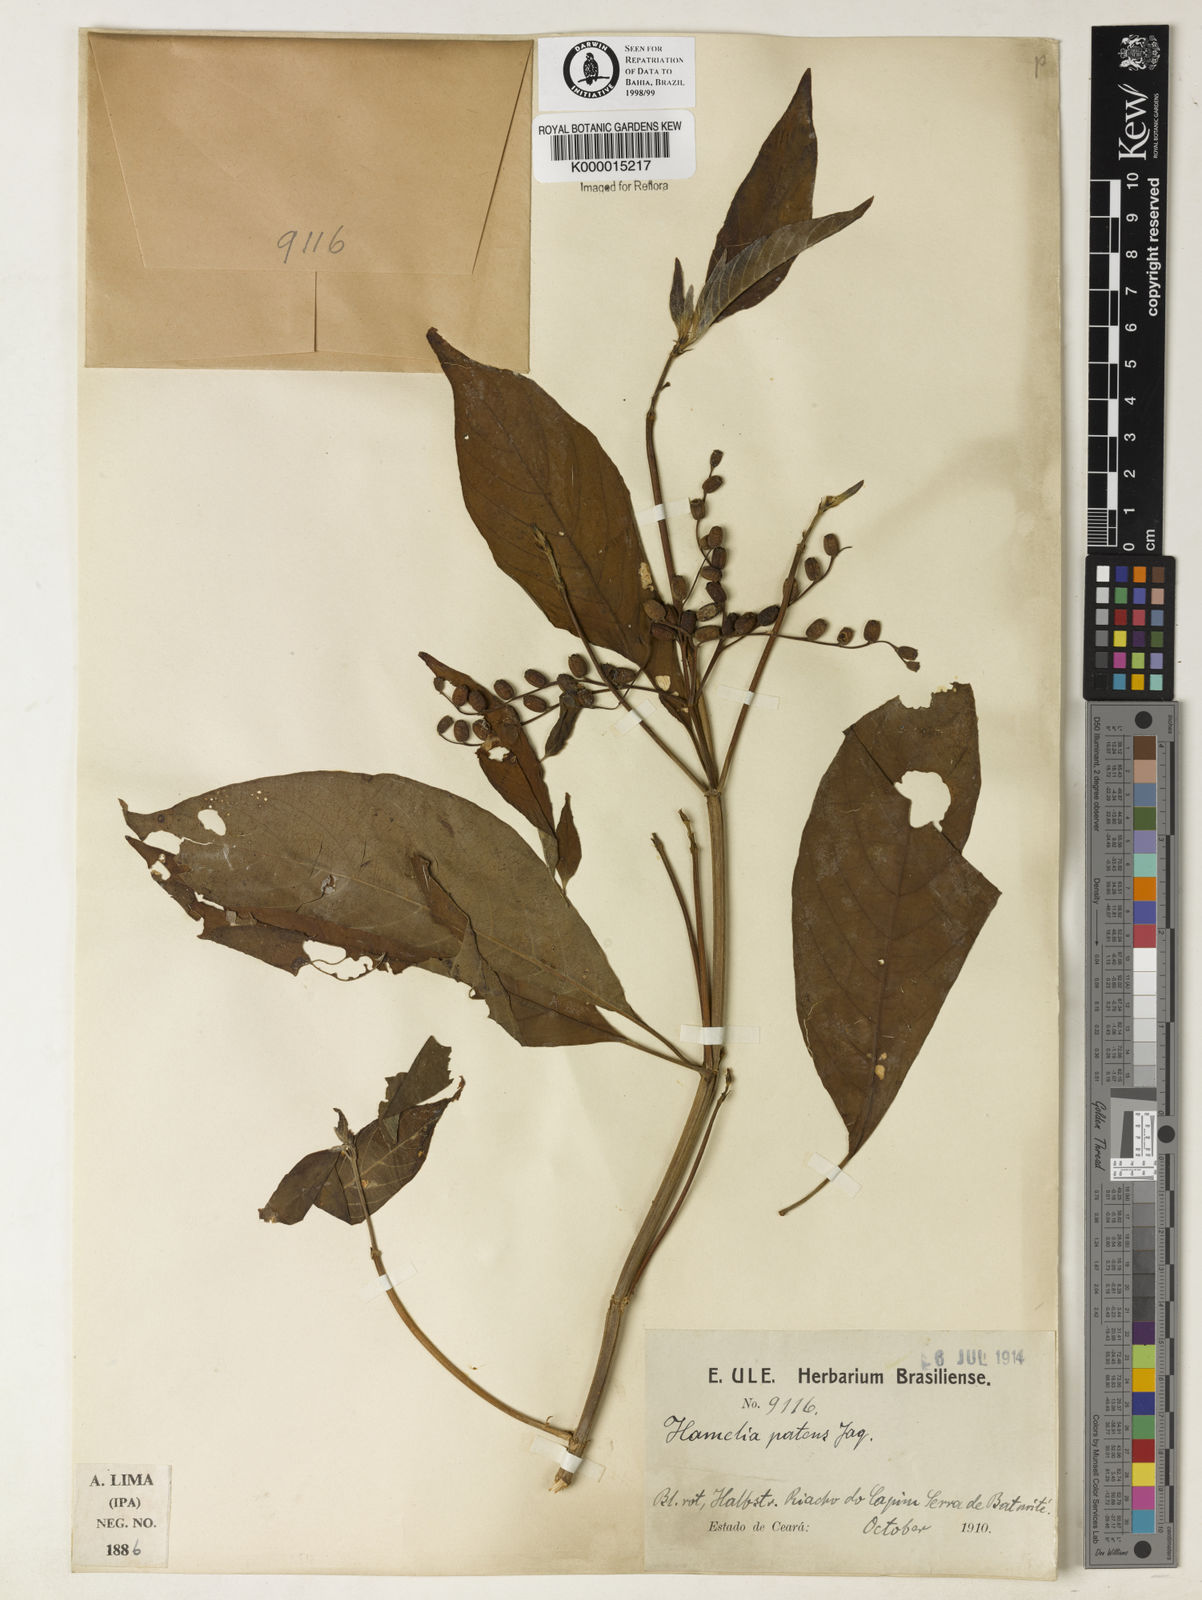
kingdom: Plantae
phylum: Tracheophyta
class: Magnoliopsida
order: Gentianales
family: Rubiaceae
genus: Hamelia
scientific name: Hamelia patens
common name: Redhead
